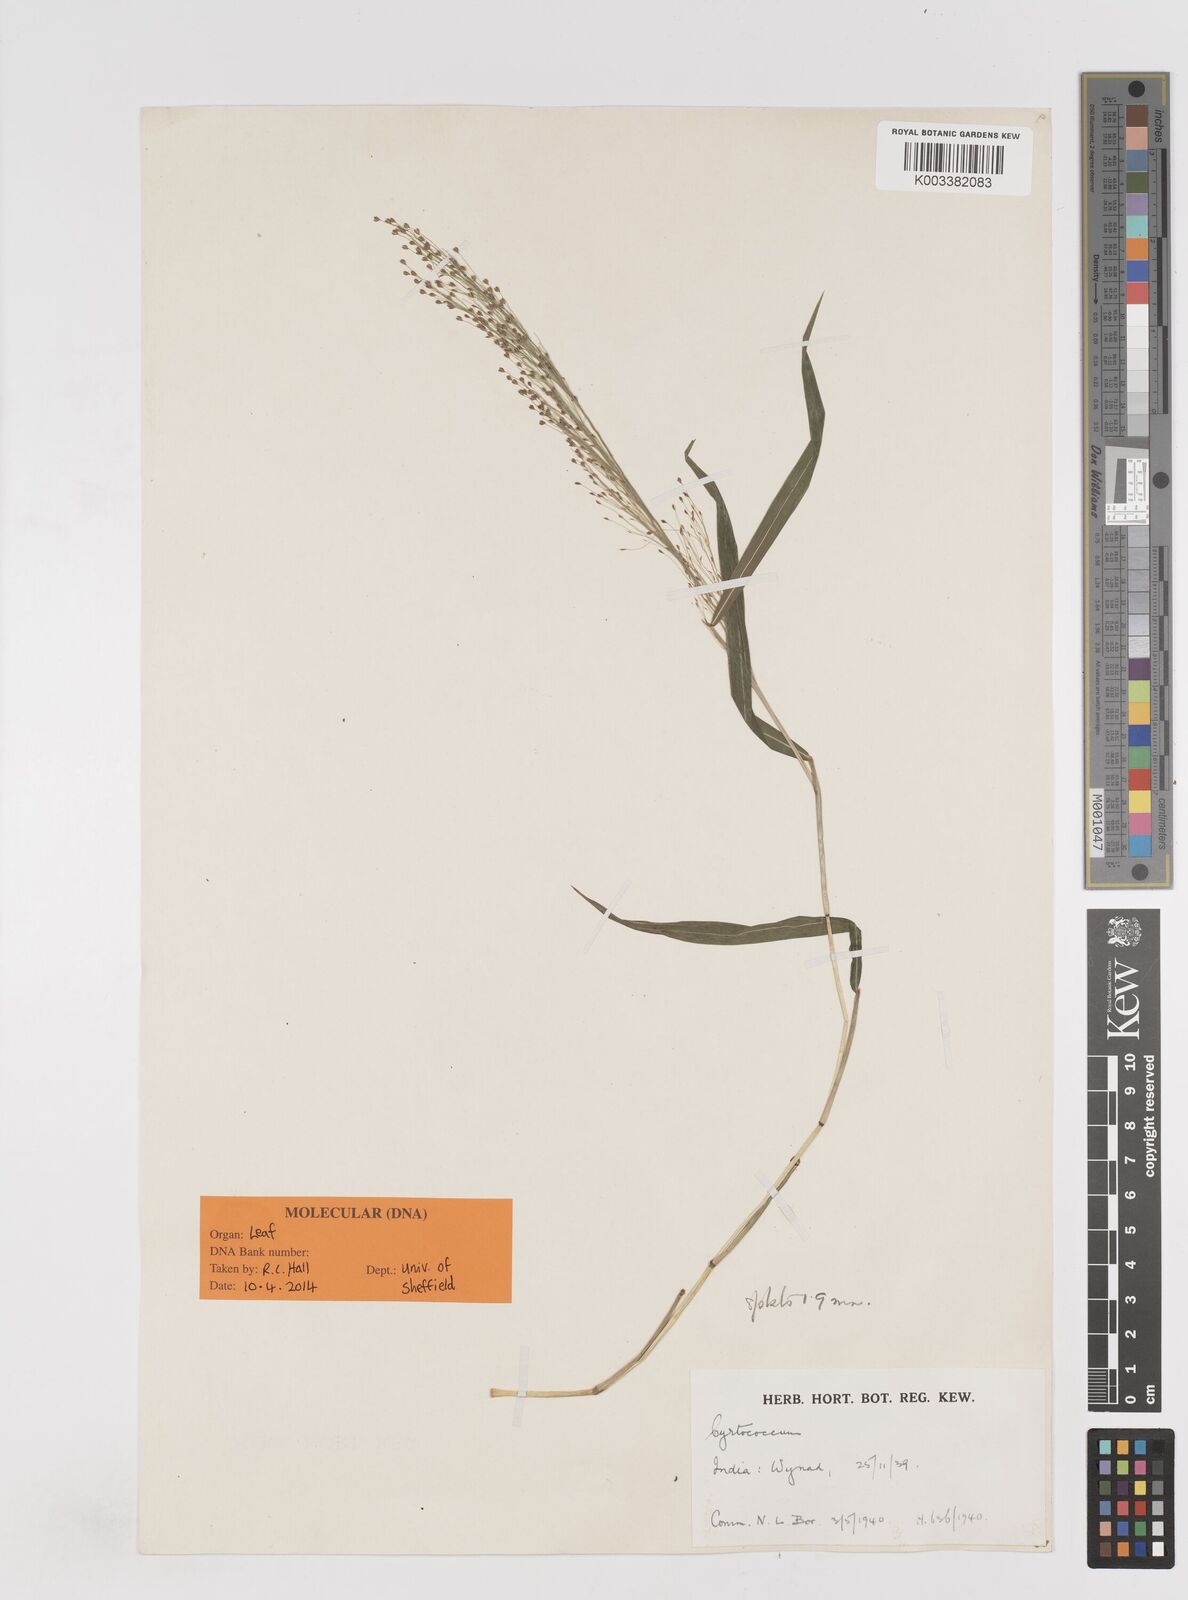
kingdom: Plantae
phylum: Tracheophyta
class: Liliopsida
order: Poales
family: Poaceae
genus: Cyrtococcum
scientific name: Cyrtococcum longipes
